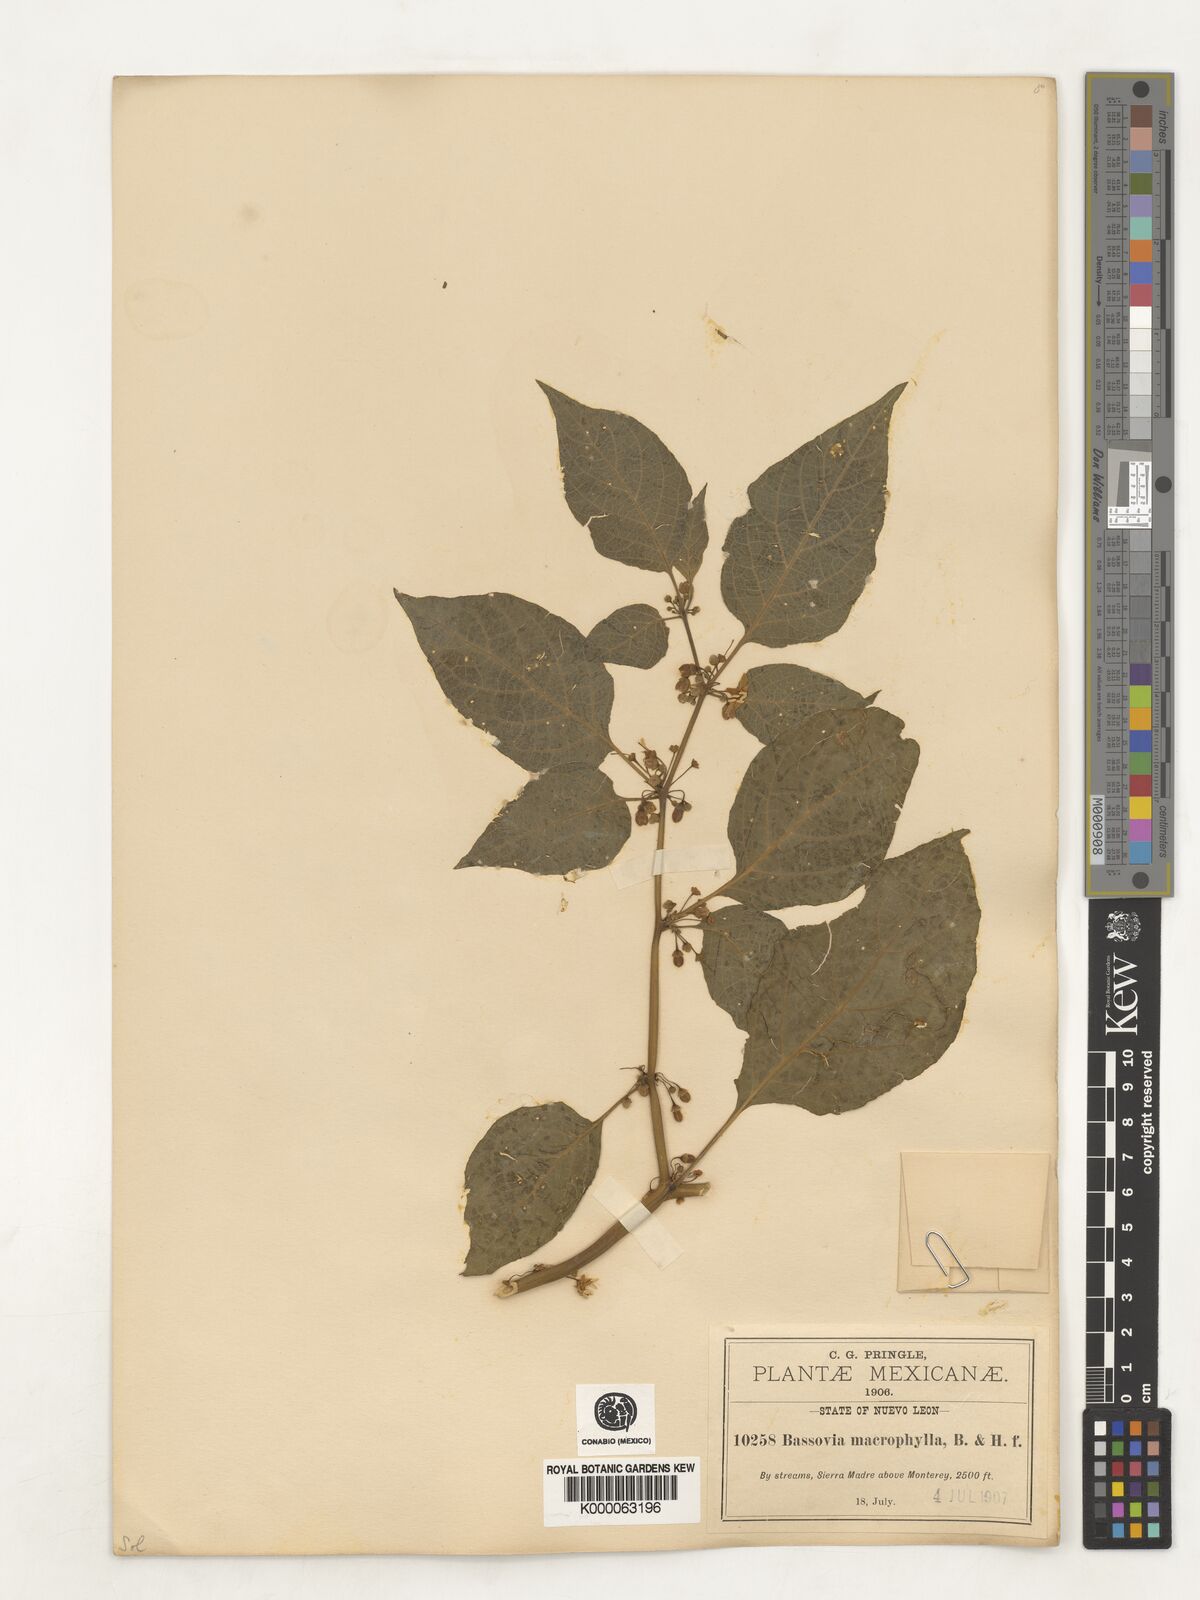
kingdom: Plantae
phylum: Tracheophyta
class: Magnoliopsida
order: Solanales
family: Solanaceae
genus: Witheringia
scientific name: Witheringia mexicana
